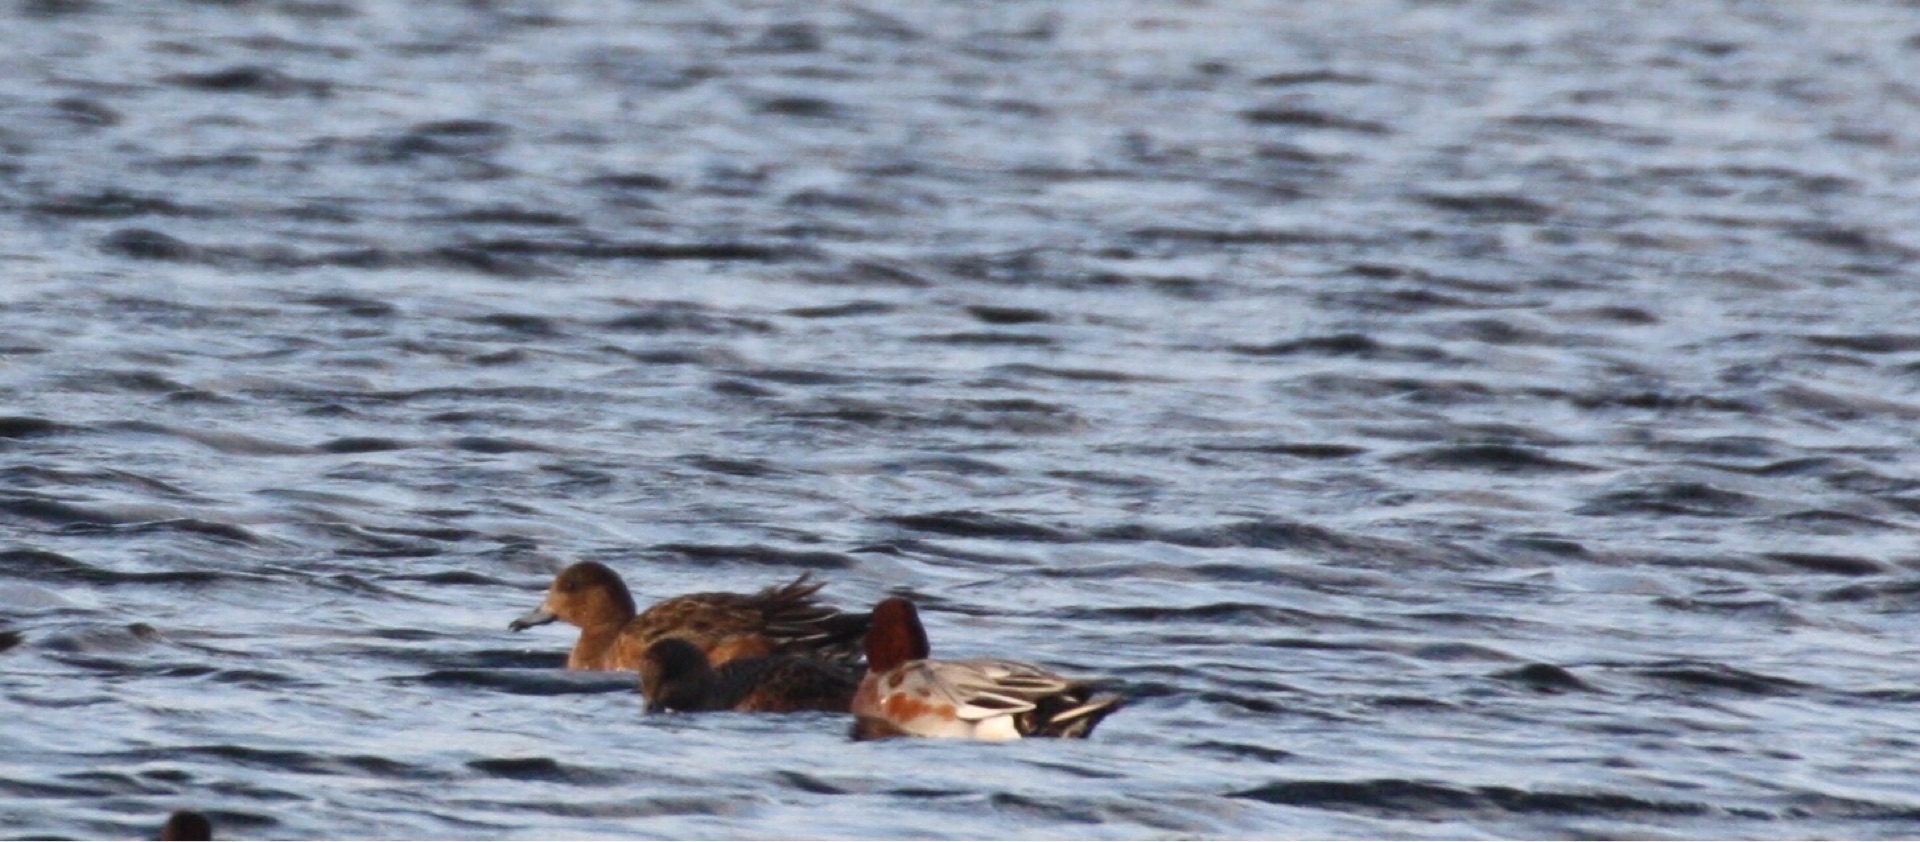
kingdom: Animalia
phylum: Chordata
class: Aves
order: Anseriformes
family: Anatidae
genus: Mareca
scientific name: Mareca penelope
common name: Pibeand
